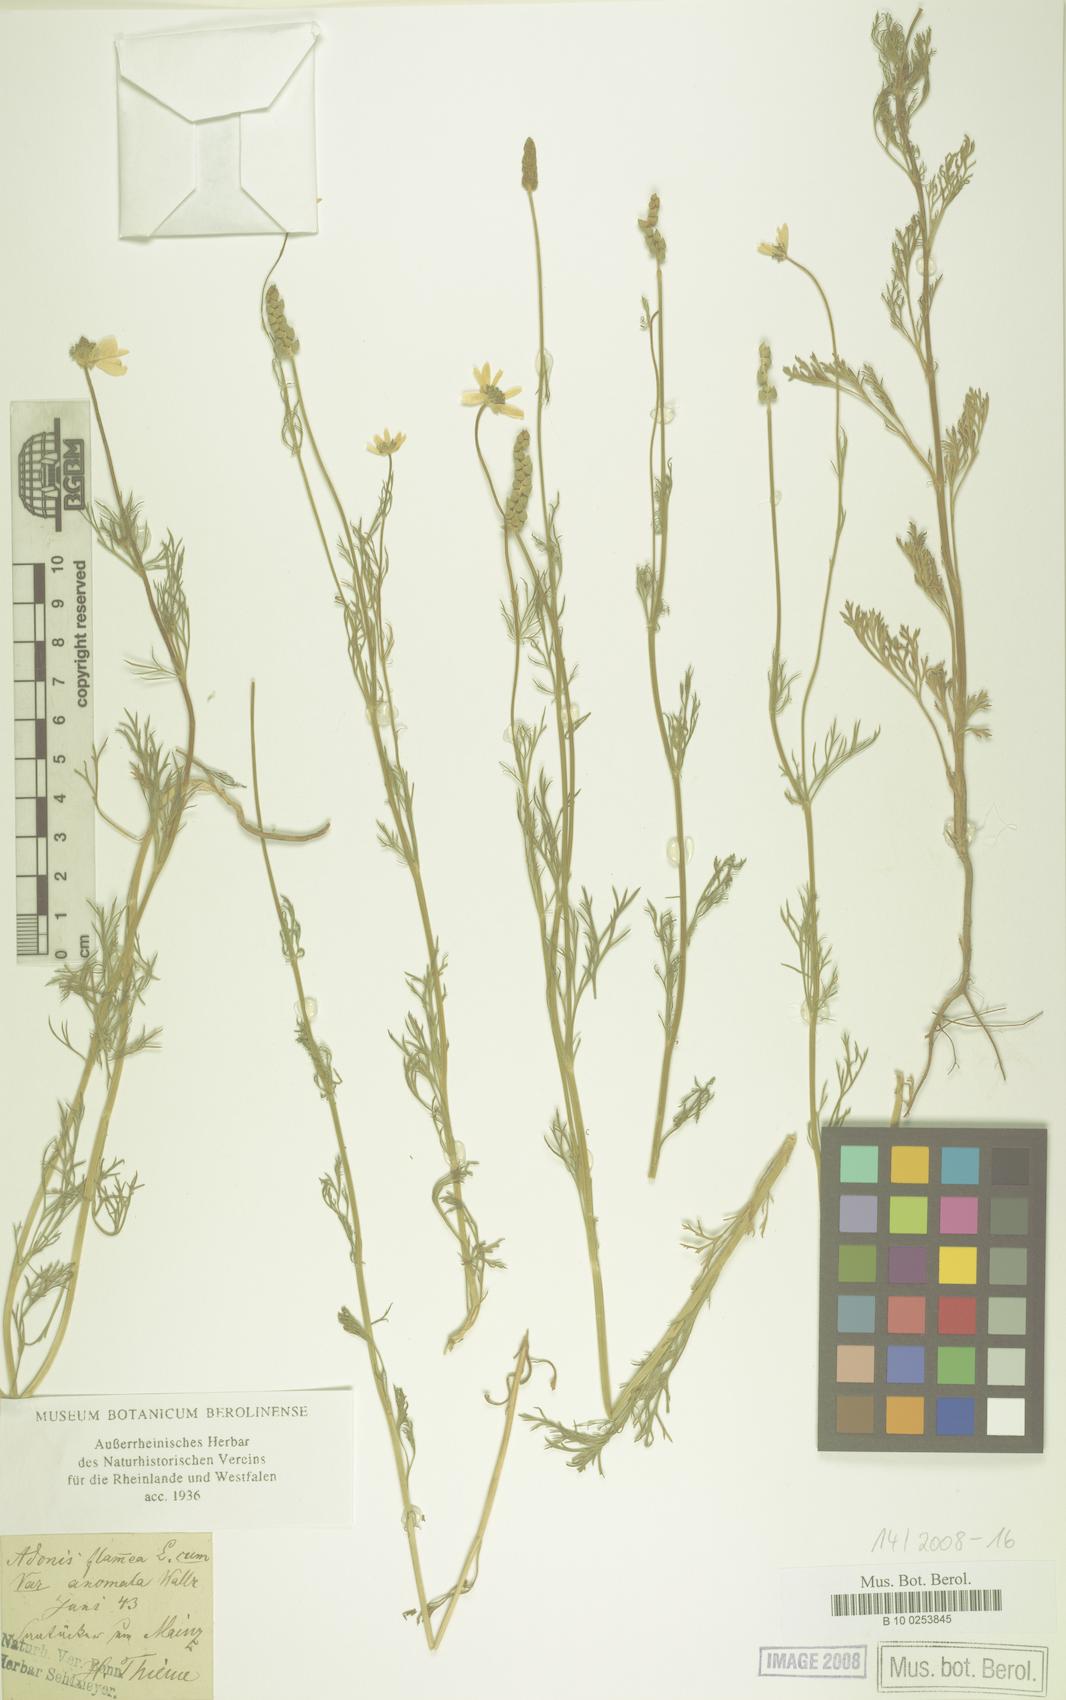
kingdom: Plantae
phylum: Tracheophyta
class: Magnoliopsida
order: Ranunculales
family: Ranunculaceae
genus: Adonis
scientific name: Adonis flammea
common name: Large pheasant's-eye
